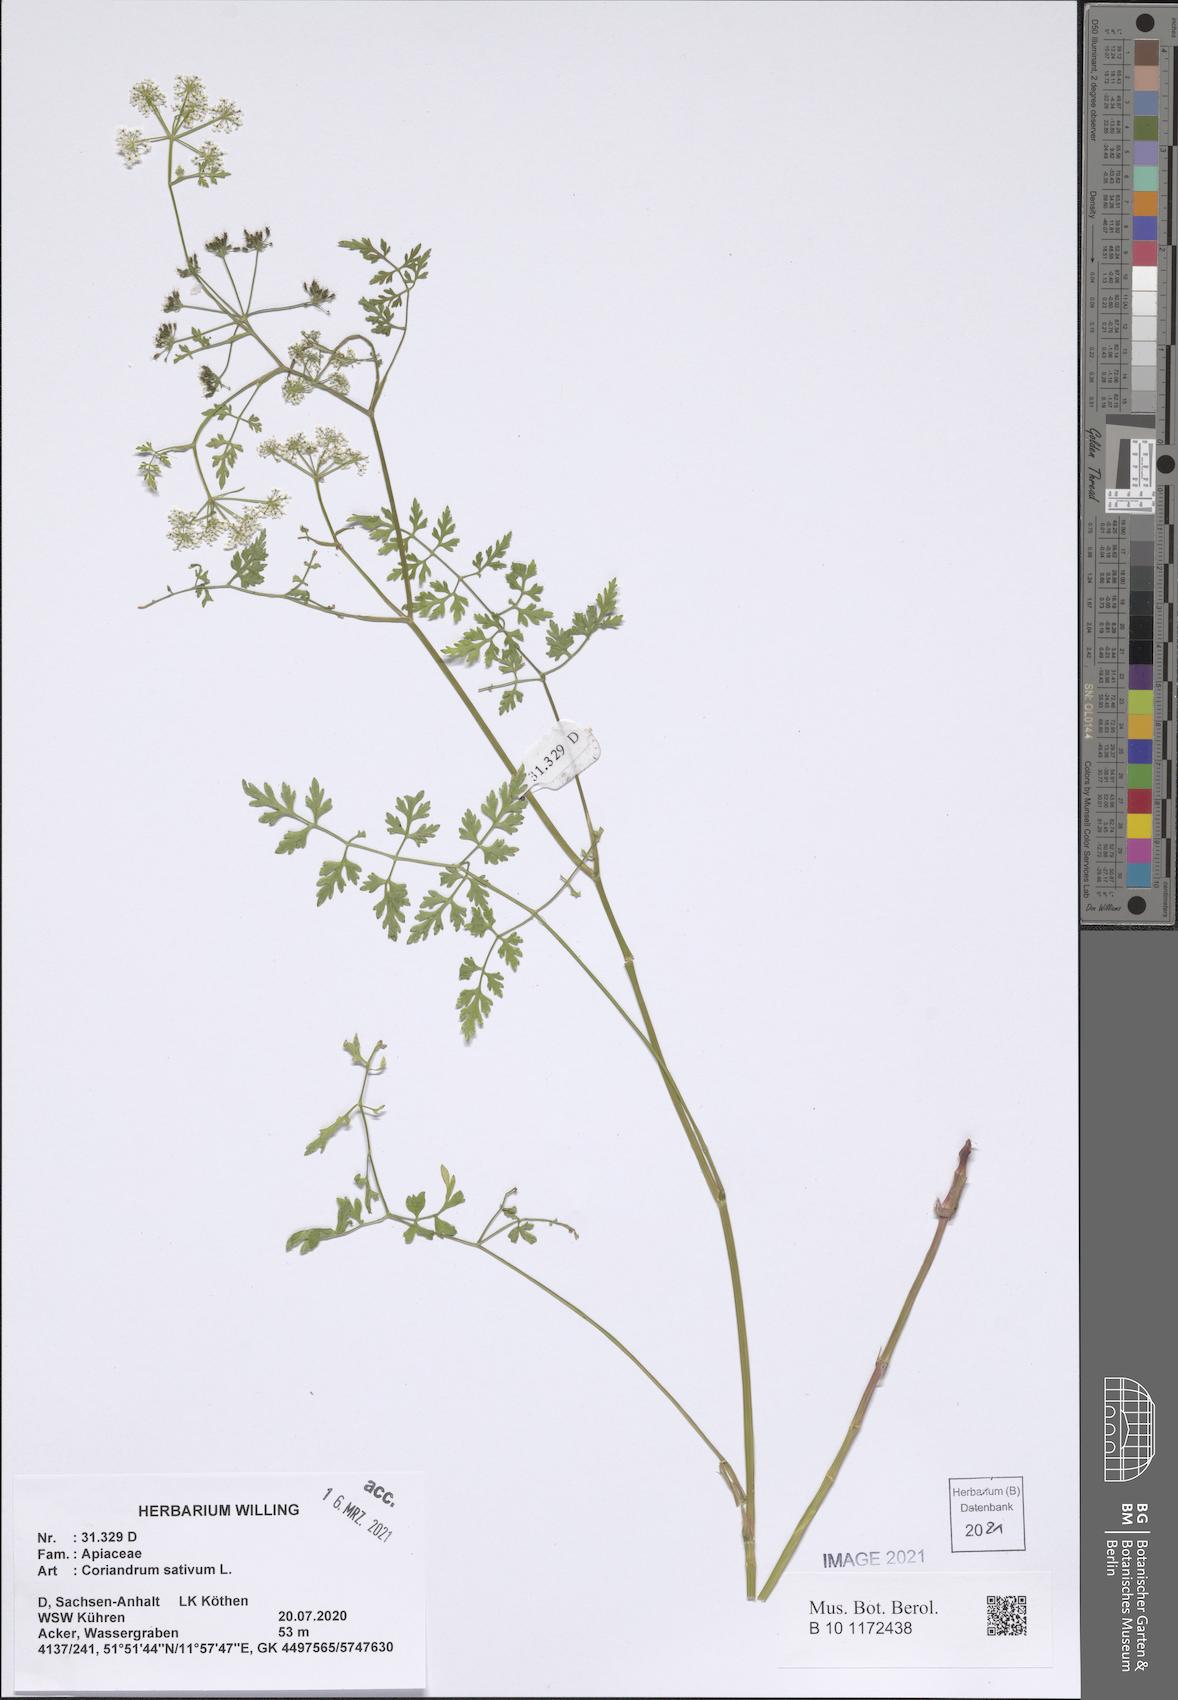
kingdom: Plantae
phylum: Tracheophyta
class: Magnoliopsida
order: Apiales
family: Apiaceae
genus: Coriandrum
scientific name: Coriandrum sativum
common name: Coriander
